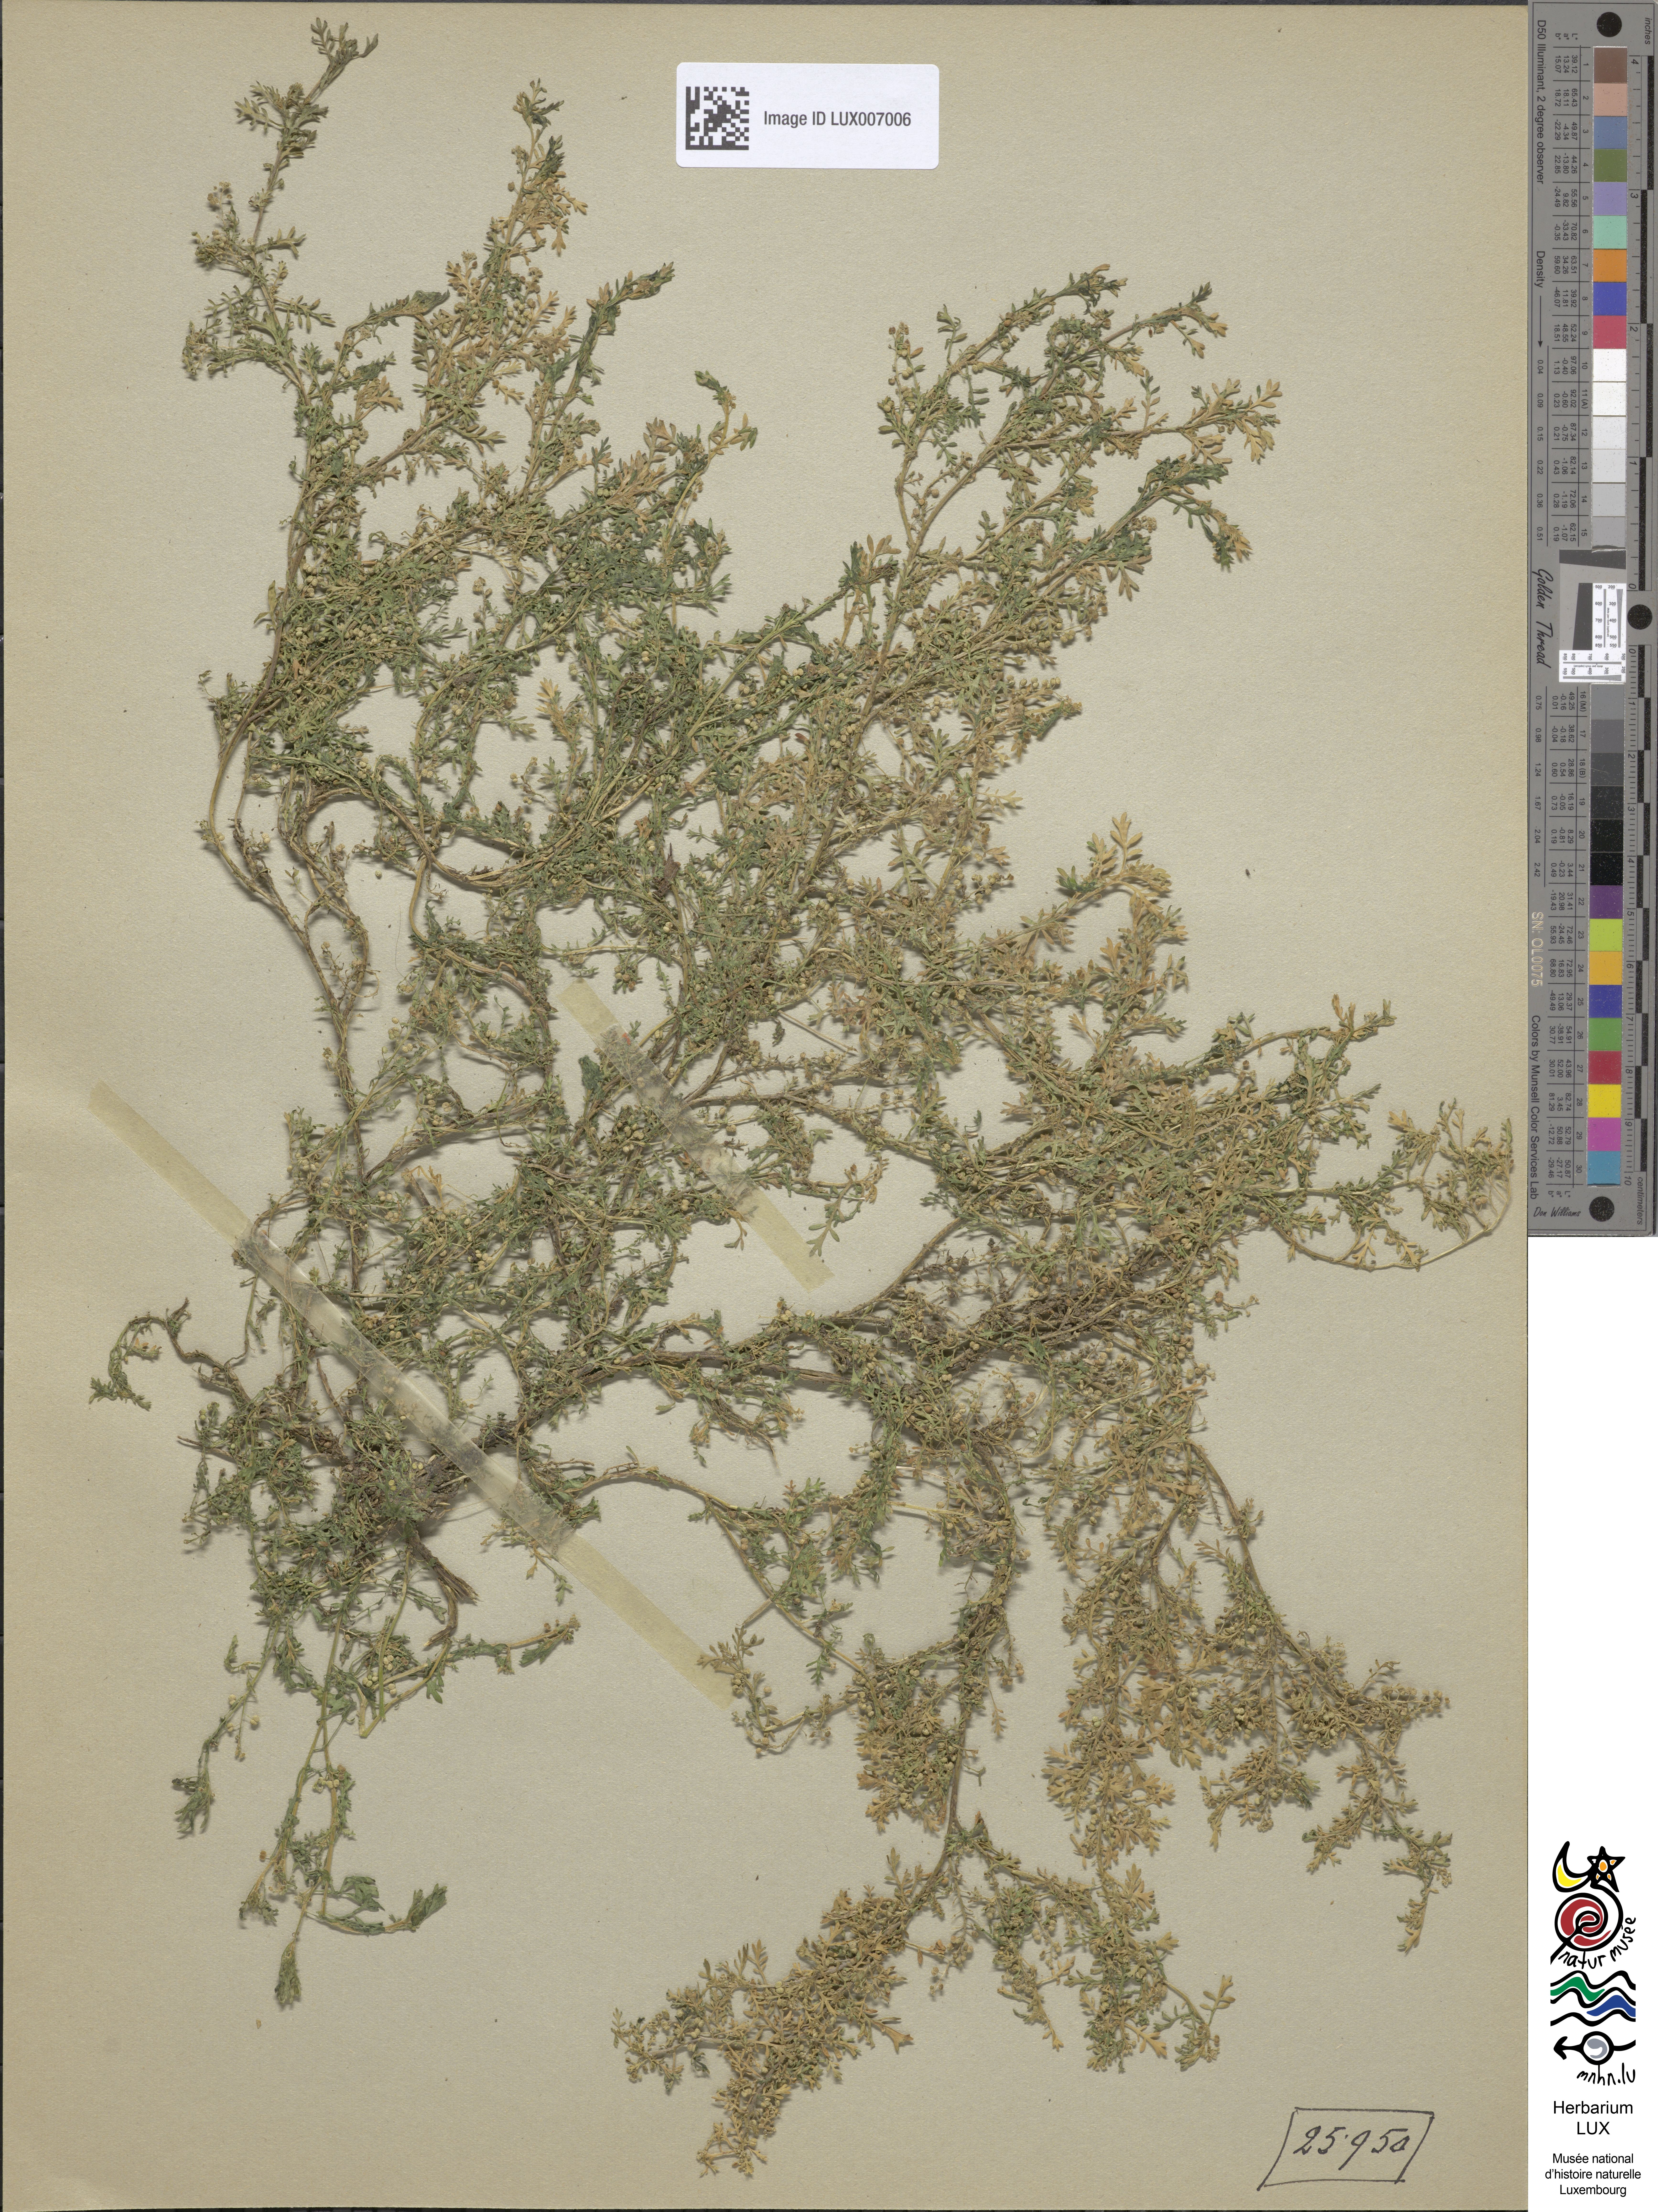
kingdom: Plantae
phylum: Tracheophyta
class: Magnoliopsida
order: Brassicales
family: Brassicaceae
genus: Lepidium
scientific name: Lepidium didymum
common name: Lesser swinecress
